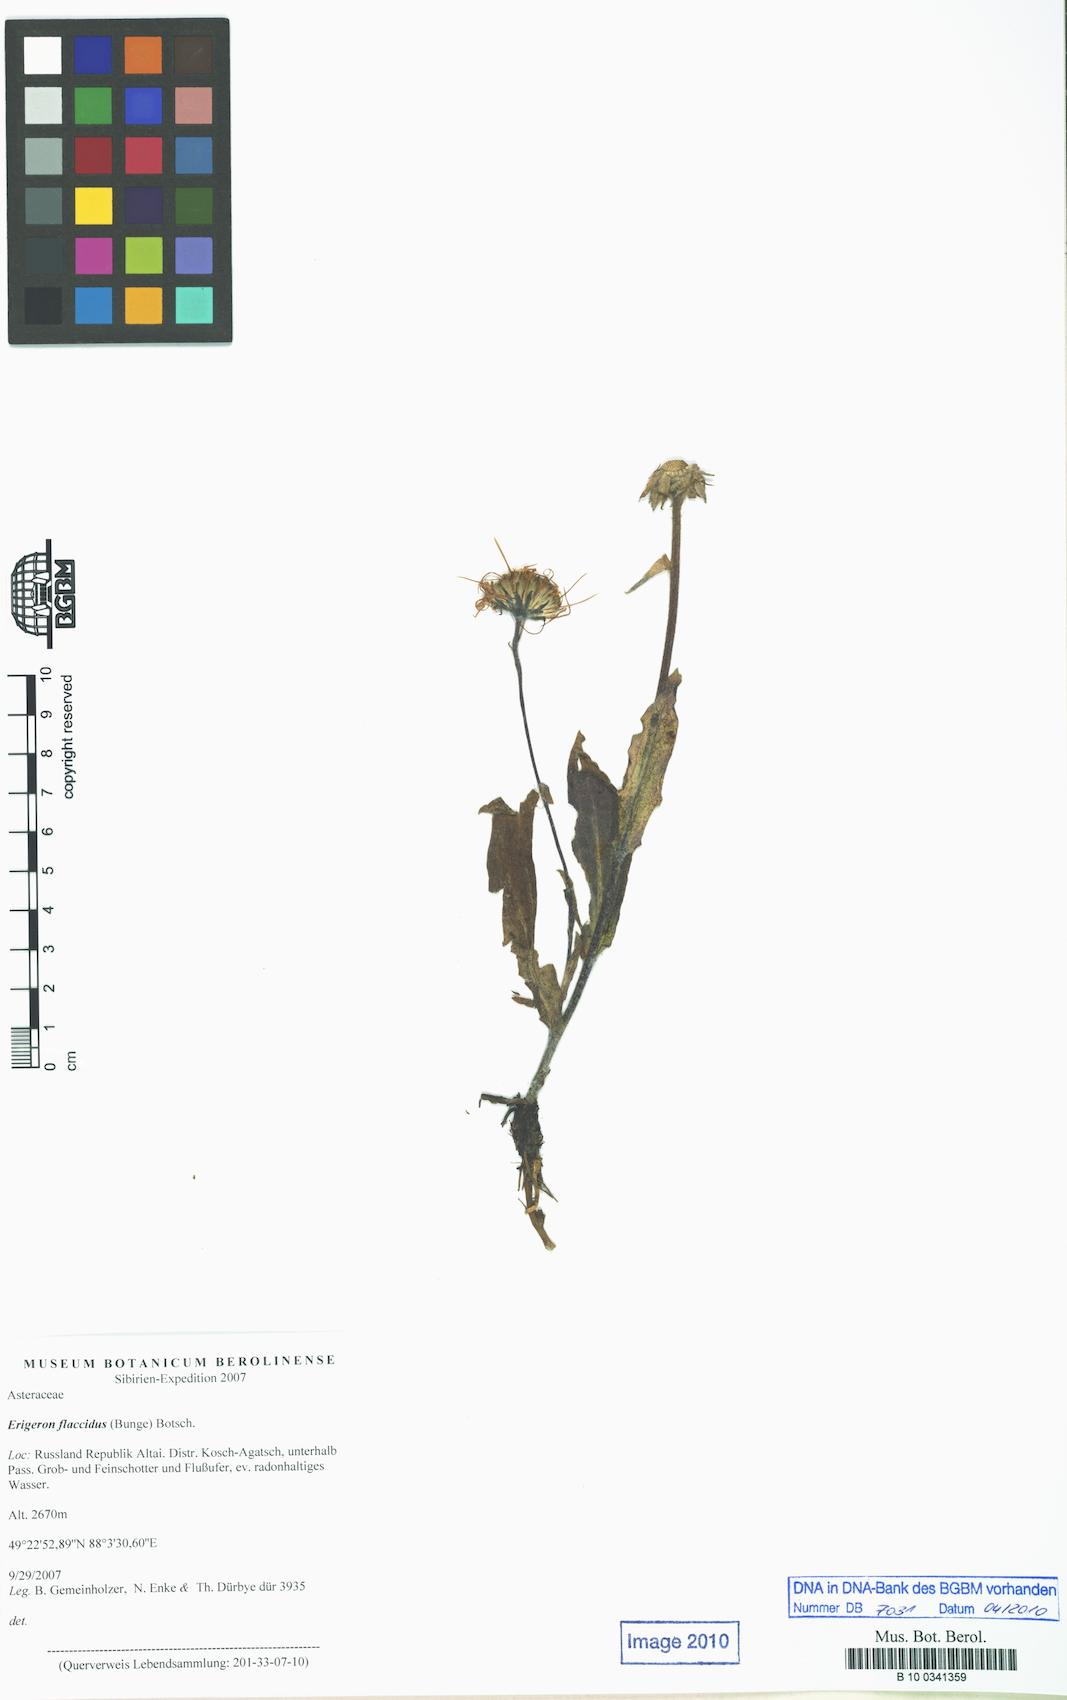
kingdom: Plantae
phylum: Tracheophyta
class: Magnoliopsida
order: Asterales
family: Asteraceae
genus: Tibetiodes
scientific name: Tibetiodes flaccida
